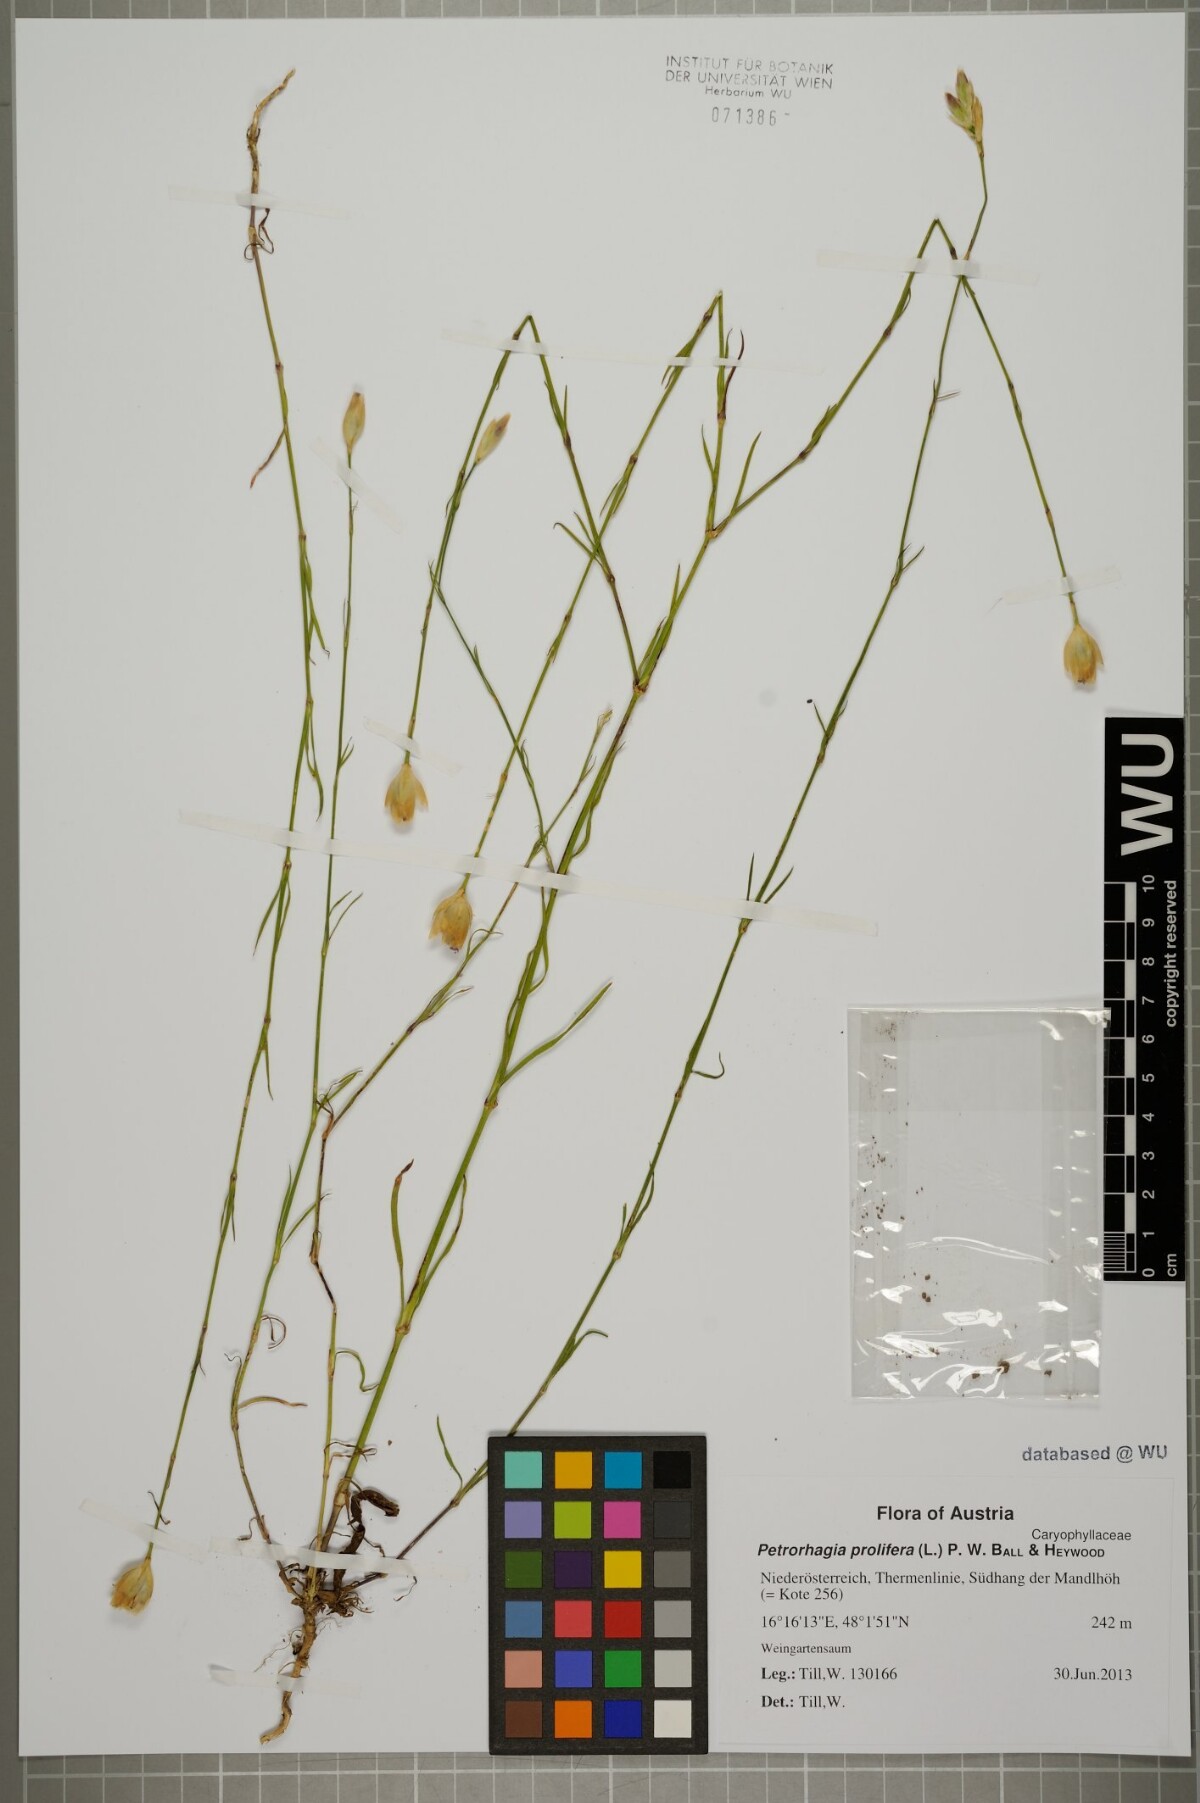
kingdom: Plantae
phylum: Tracheophyta
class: Magnoliopsida
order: Caryophyllales
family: Caryophyllaceae
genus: Petrorhagia
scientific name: Petrorhagia prolifera
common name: Proliferous pink
